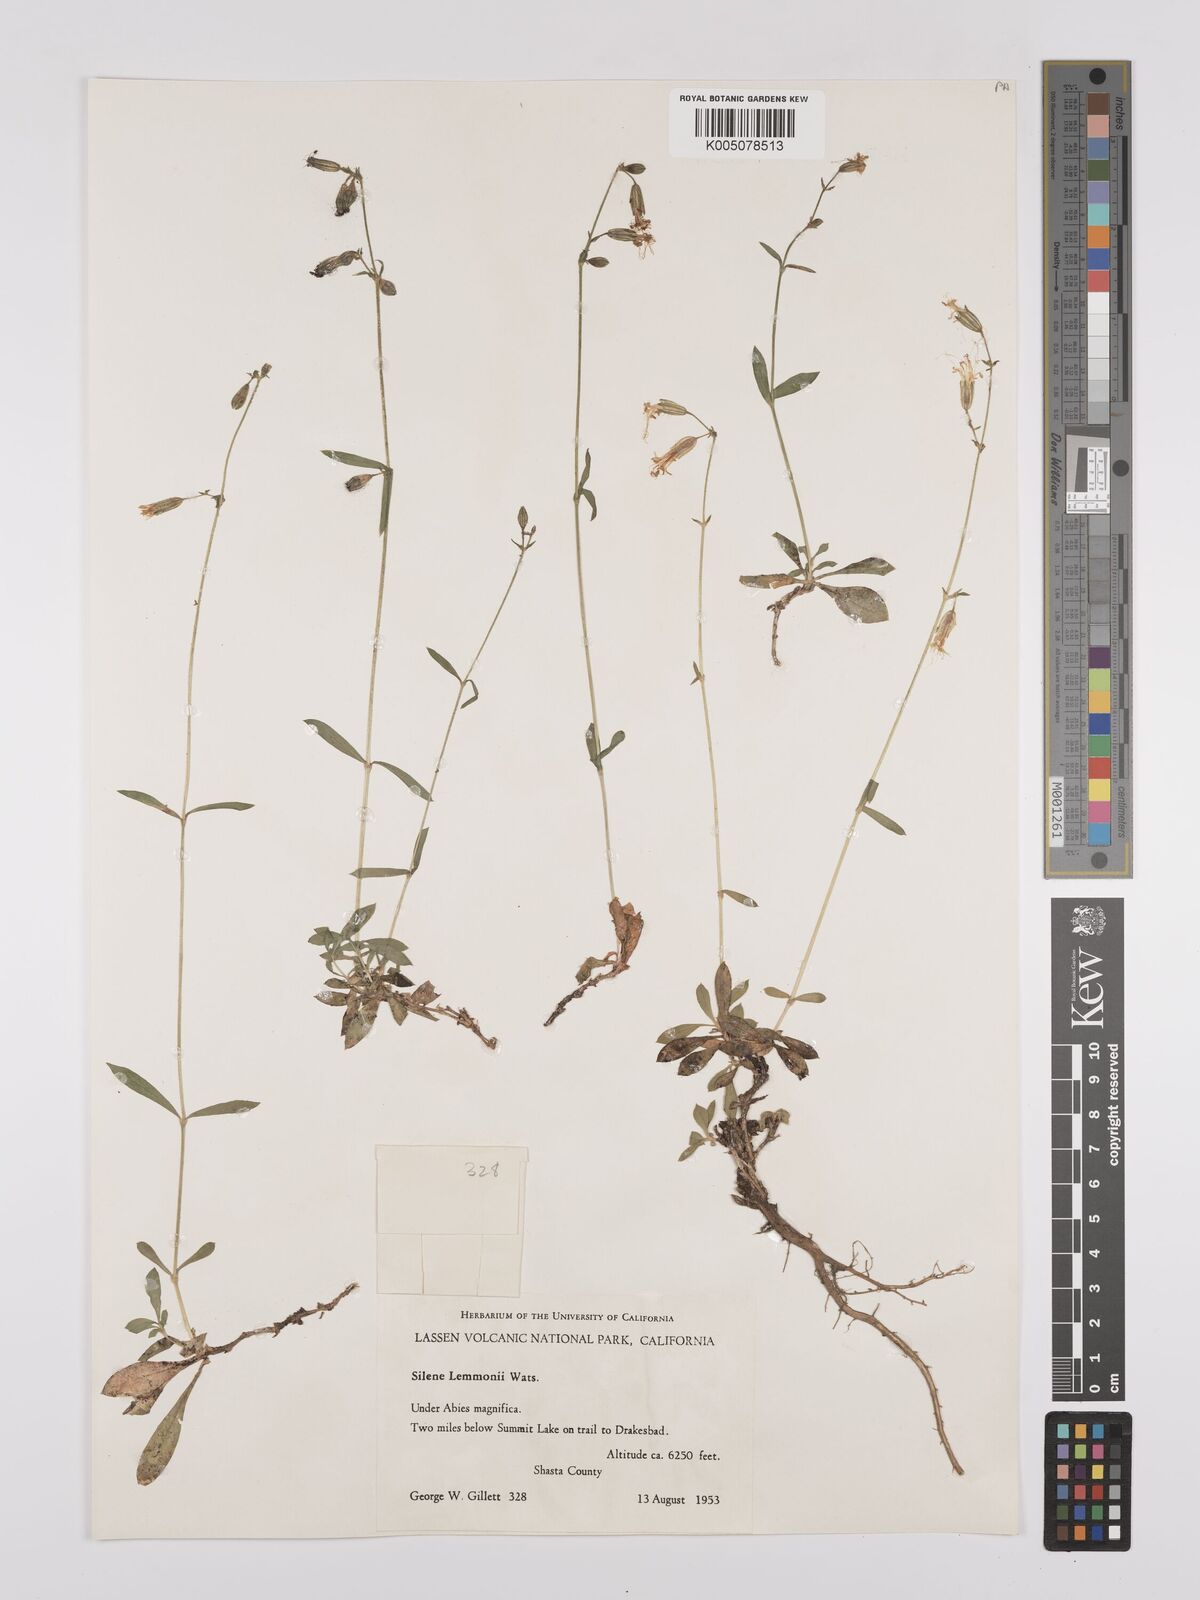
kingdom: Plantae
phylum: Tracheophyta
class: Magnoliopsida
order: Caryophyllales
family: Caryophyllaceae
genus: Silene
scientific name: Silene lemmonii
